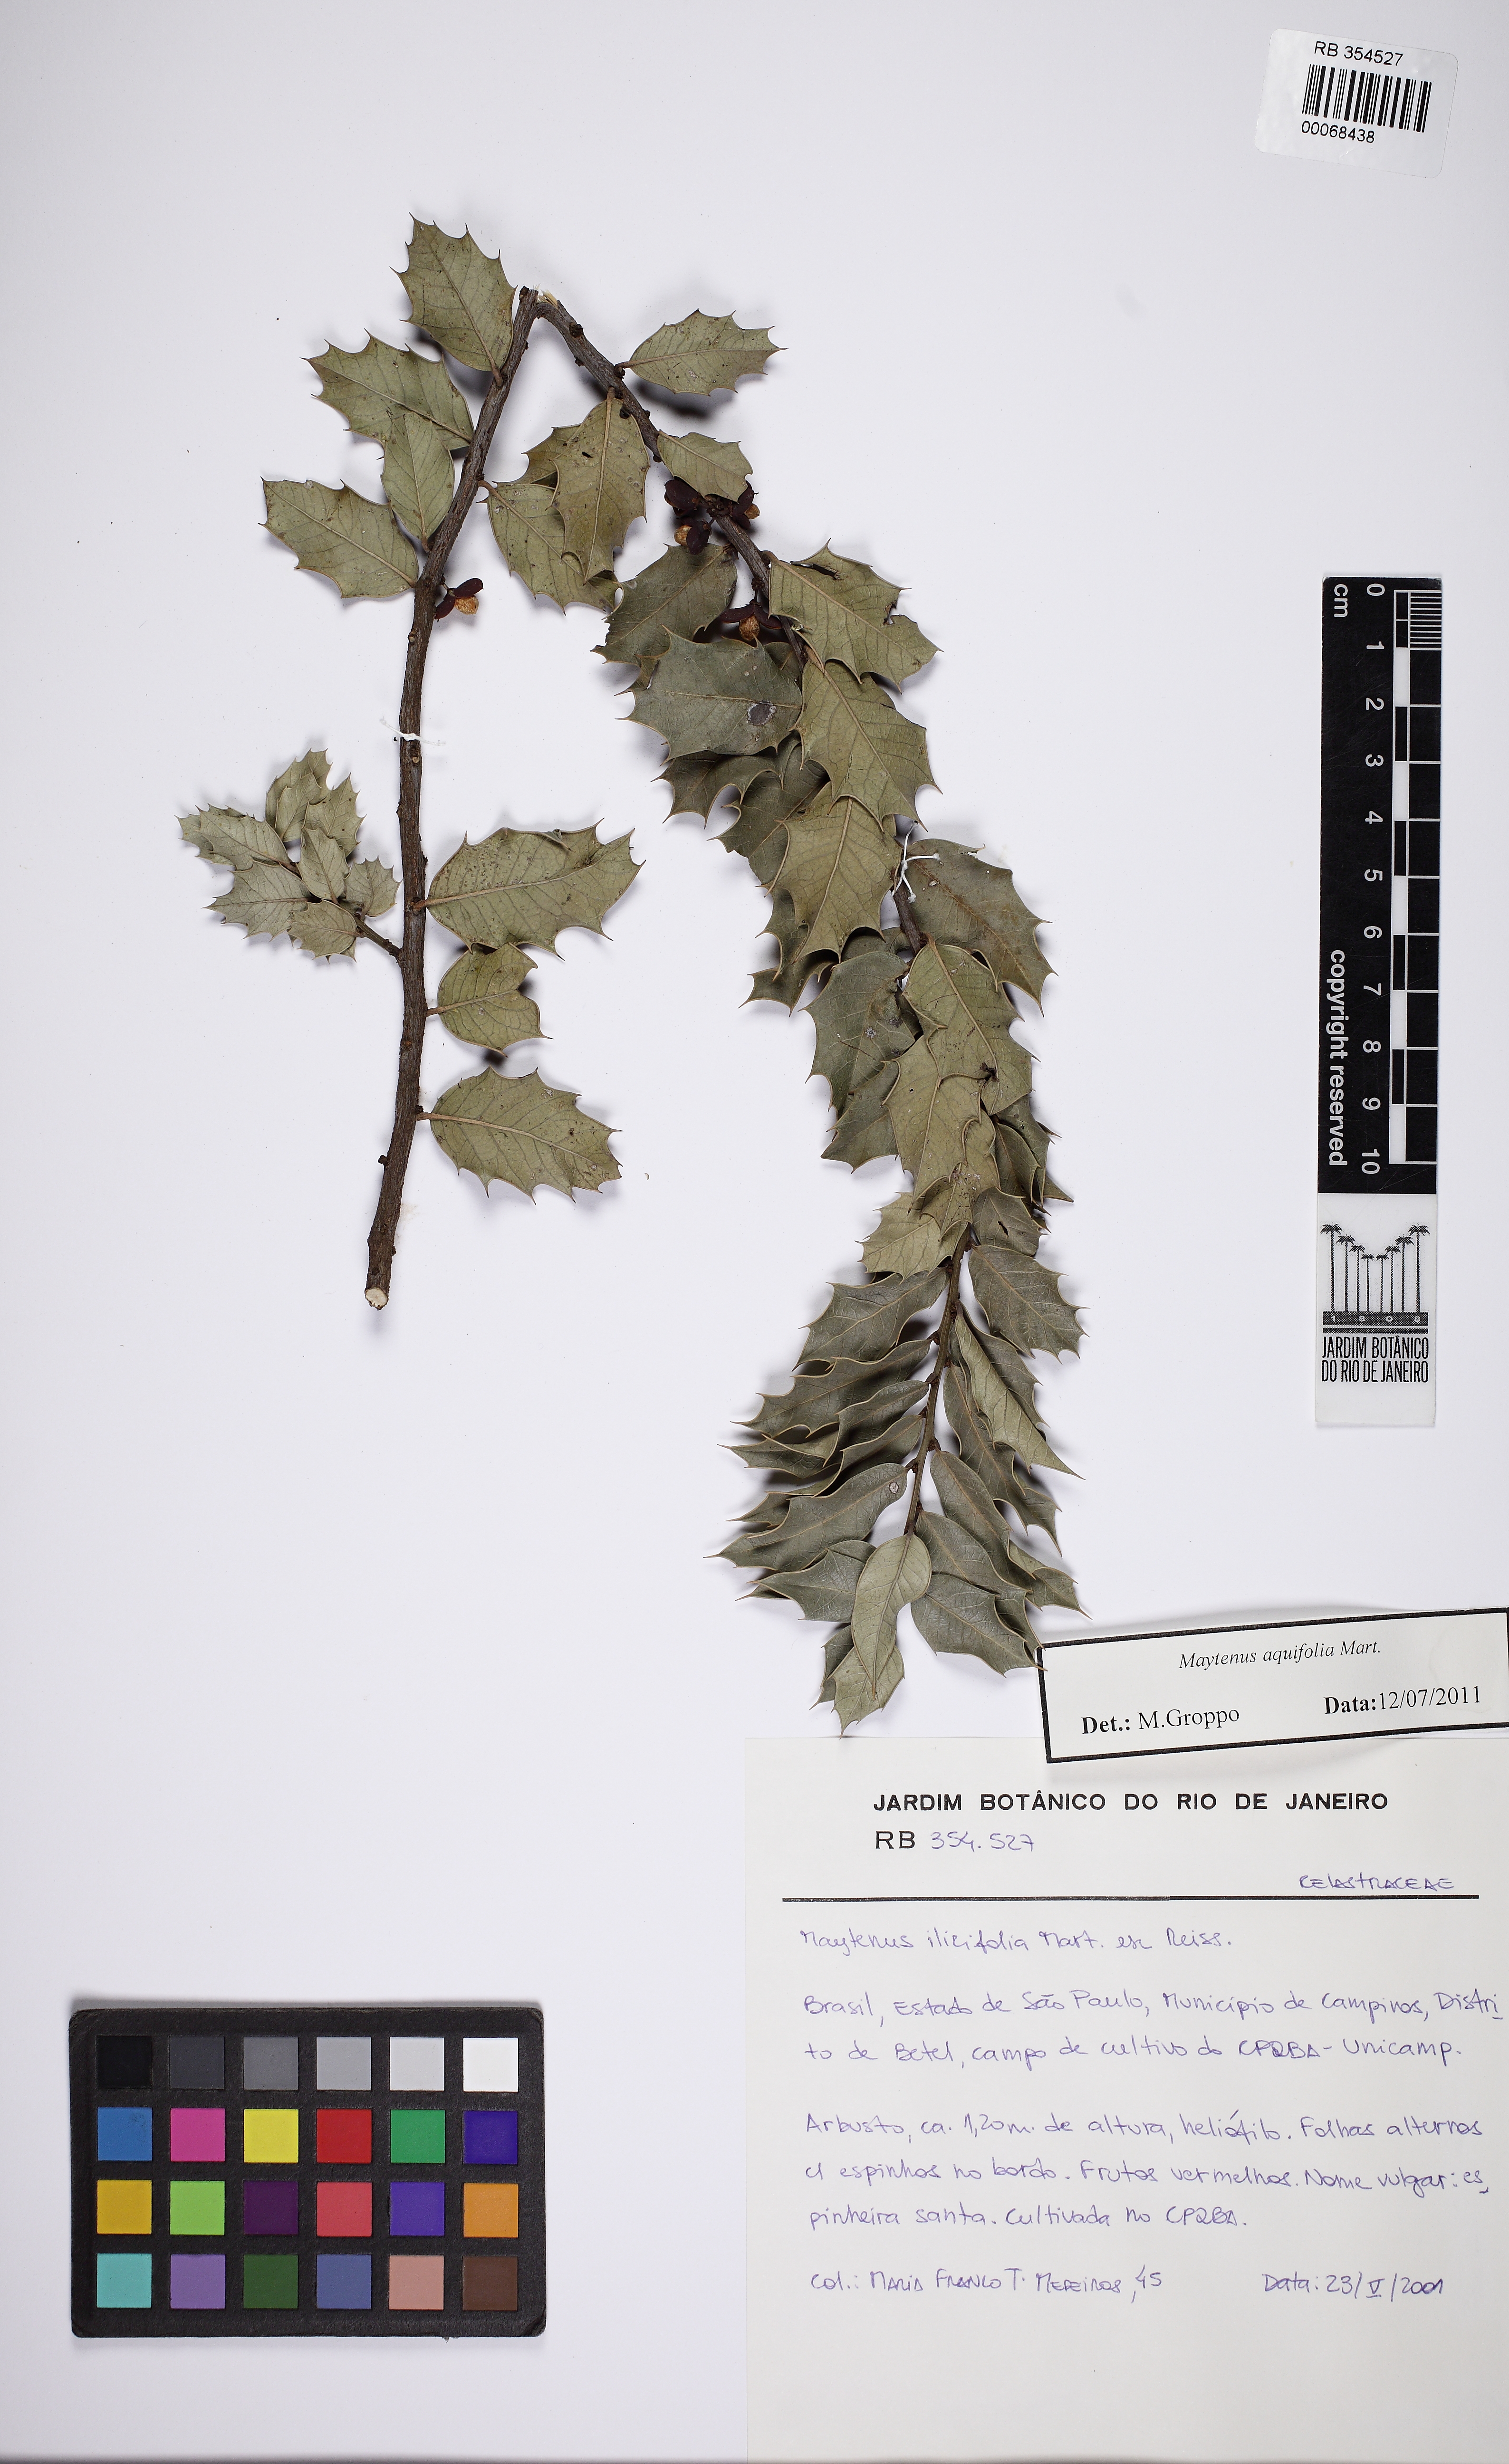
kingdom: Plantae
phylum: Tracheophyta
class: Magnoliopsida
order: Celastrales
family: Celastraceae
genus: Monteverdia
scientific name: Monteverdia aquifolium
